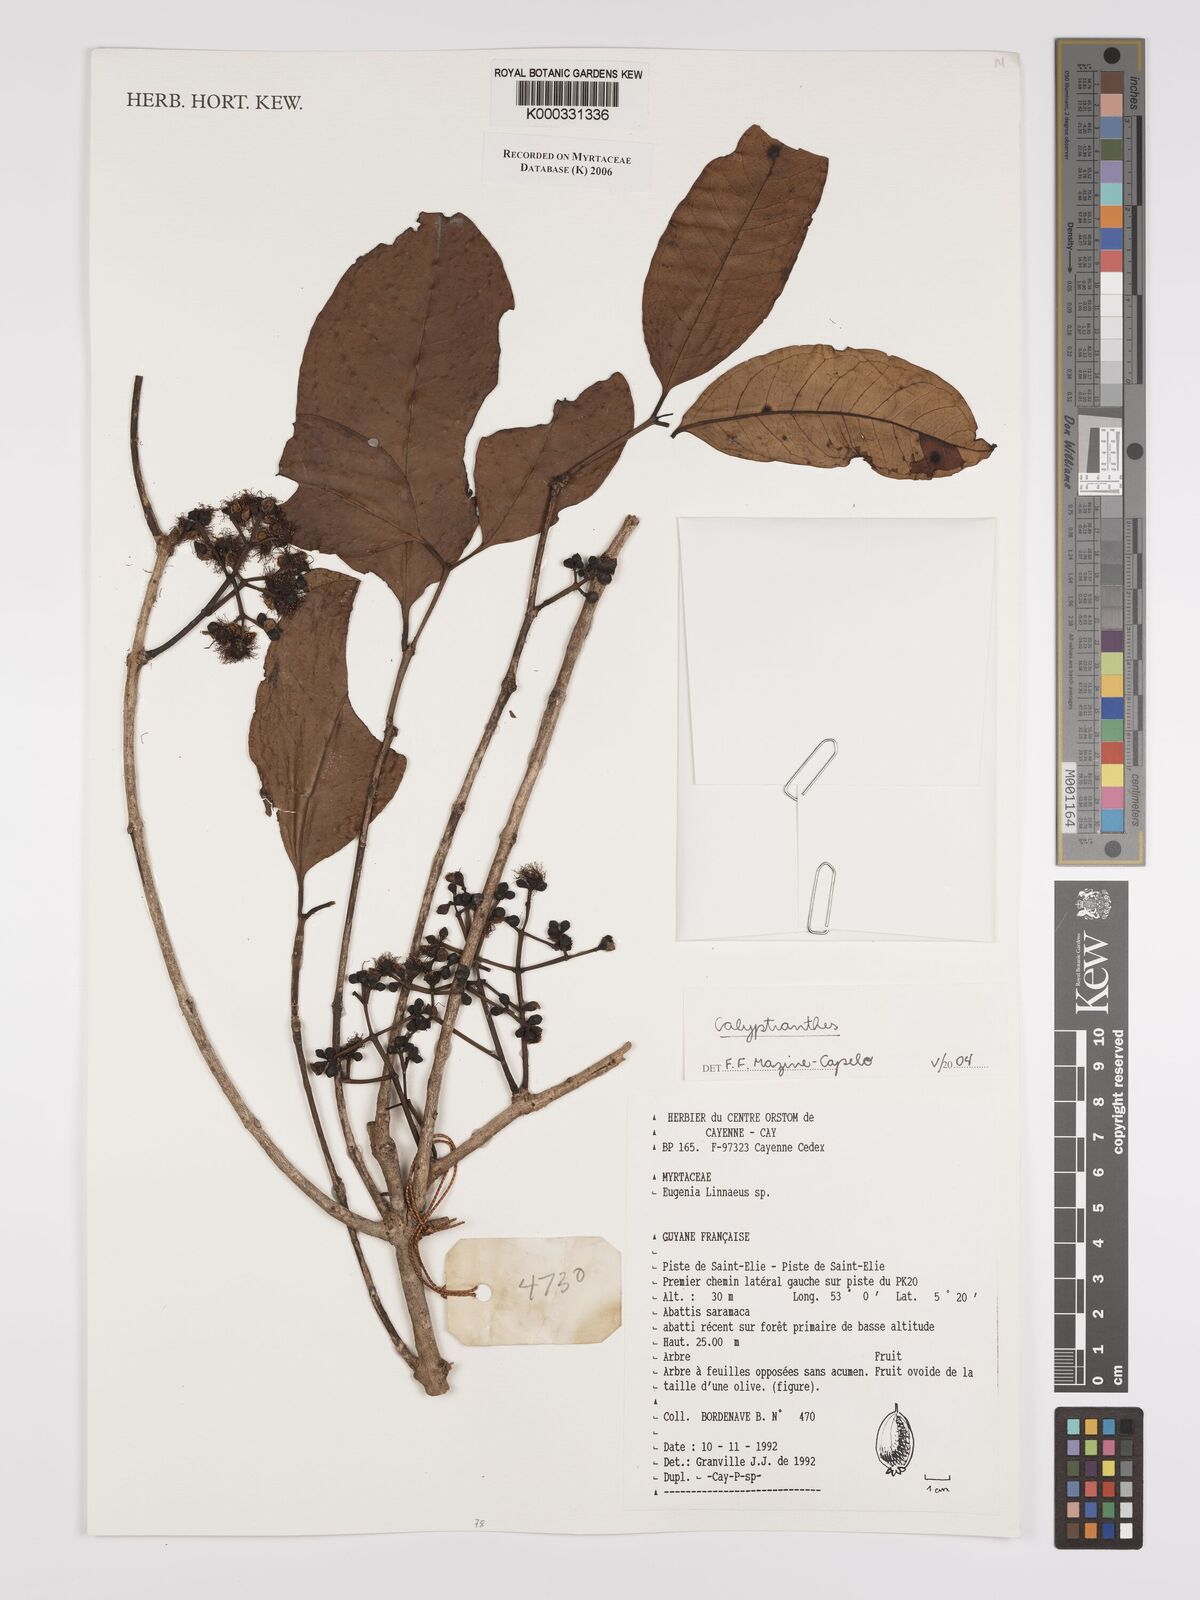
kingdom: Plantae
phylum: Tracheophyta
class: Magnoliopsida
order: Myrtales
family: Myrtaceae
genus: Calyptranthes
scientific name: Calyptranthes
